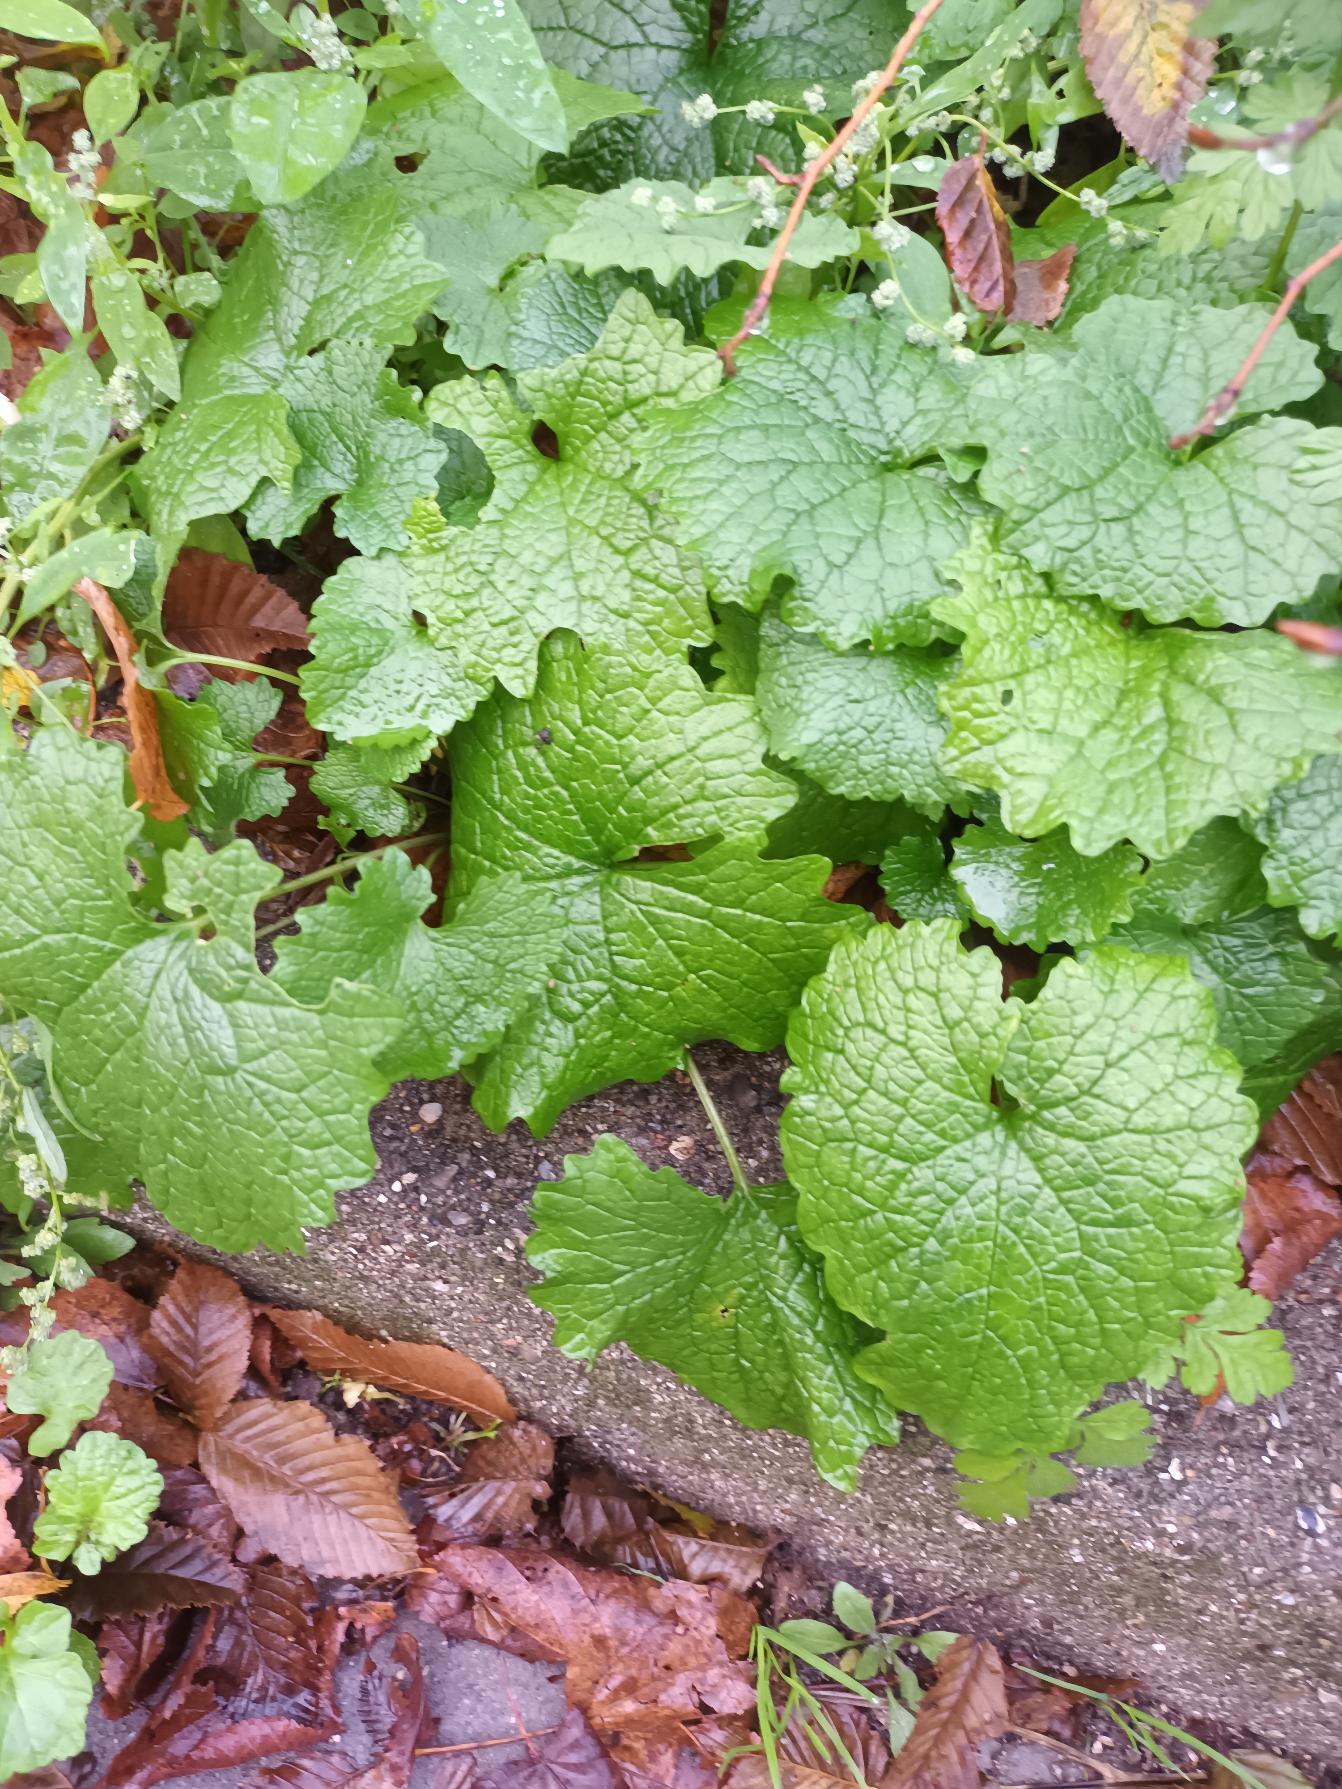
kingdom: Plantae
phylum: Tracheophyta
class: Magnoliopsida
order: Brassicales
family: Brassicaceae
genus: Alliaria
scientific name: Alliaria petiolata
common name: Løgkarse
